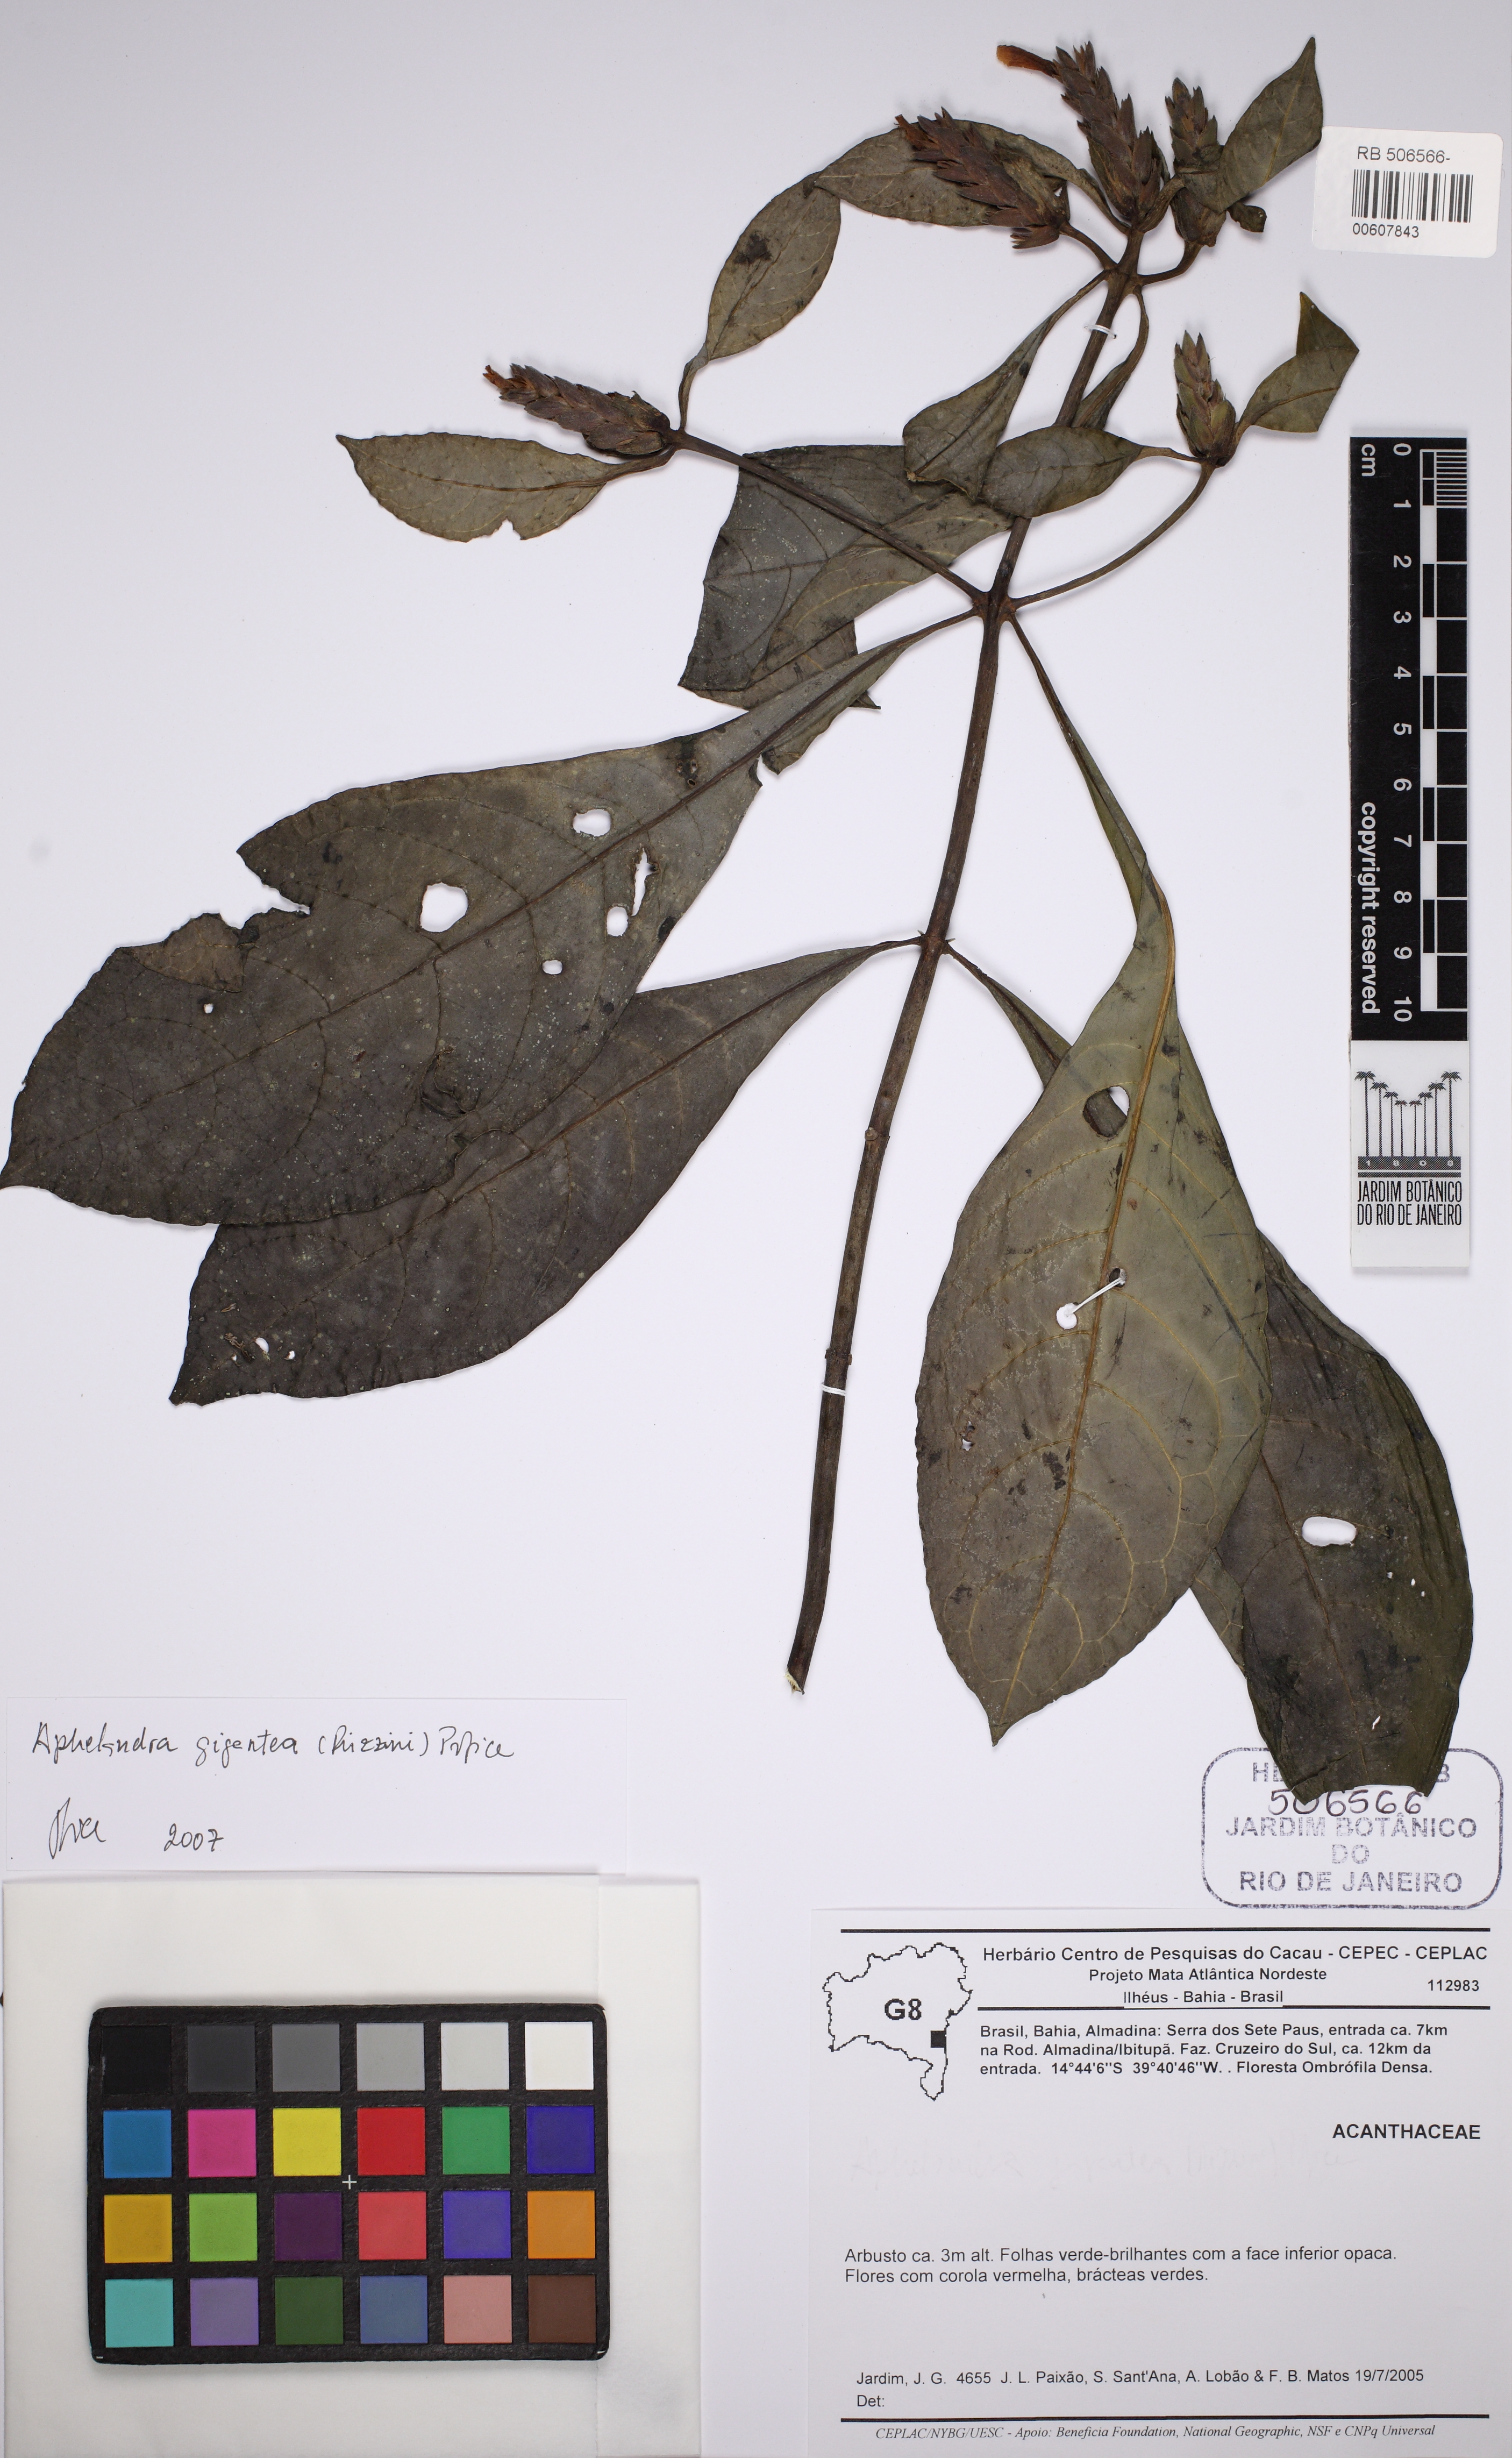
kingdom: Plantae
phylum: Tracheophyta
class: Magnoliopsida
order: Lamiales
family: Acanthaceae
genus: Aphelandra
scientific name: Aphelandra gigantea
